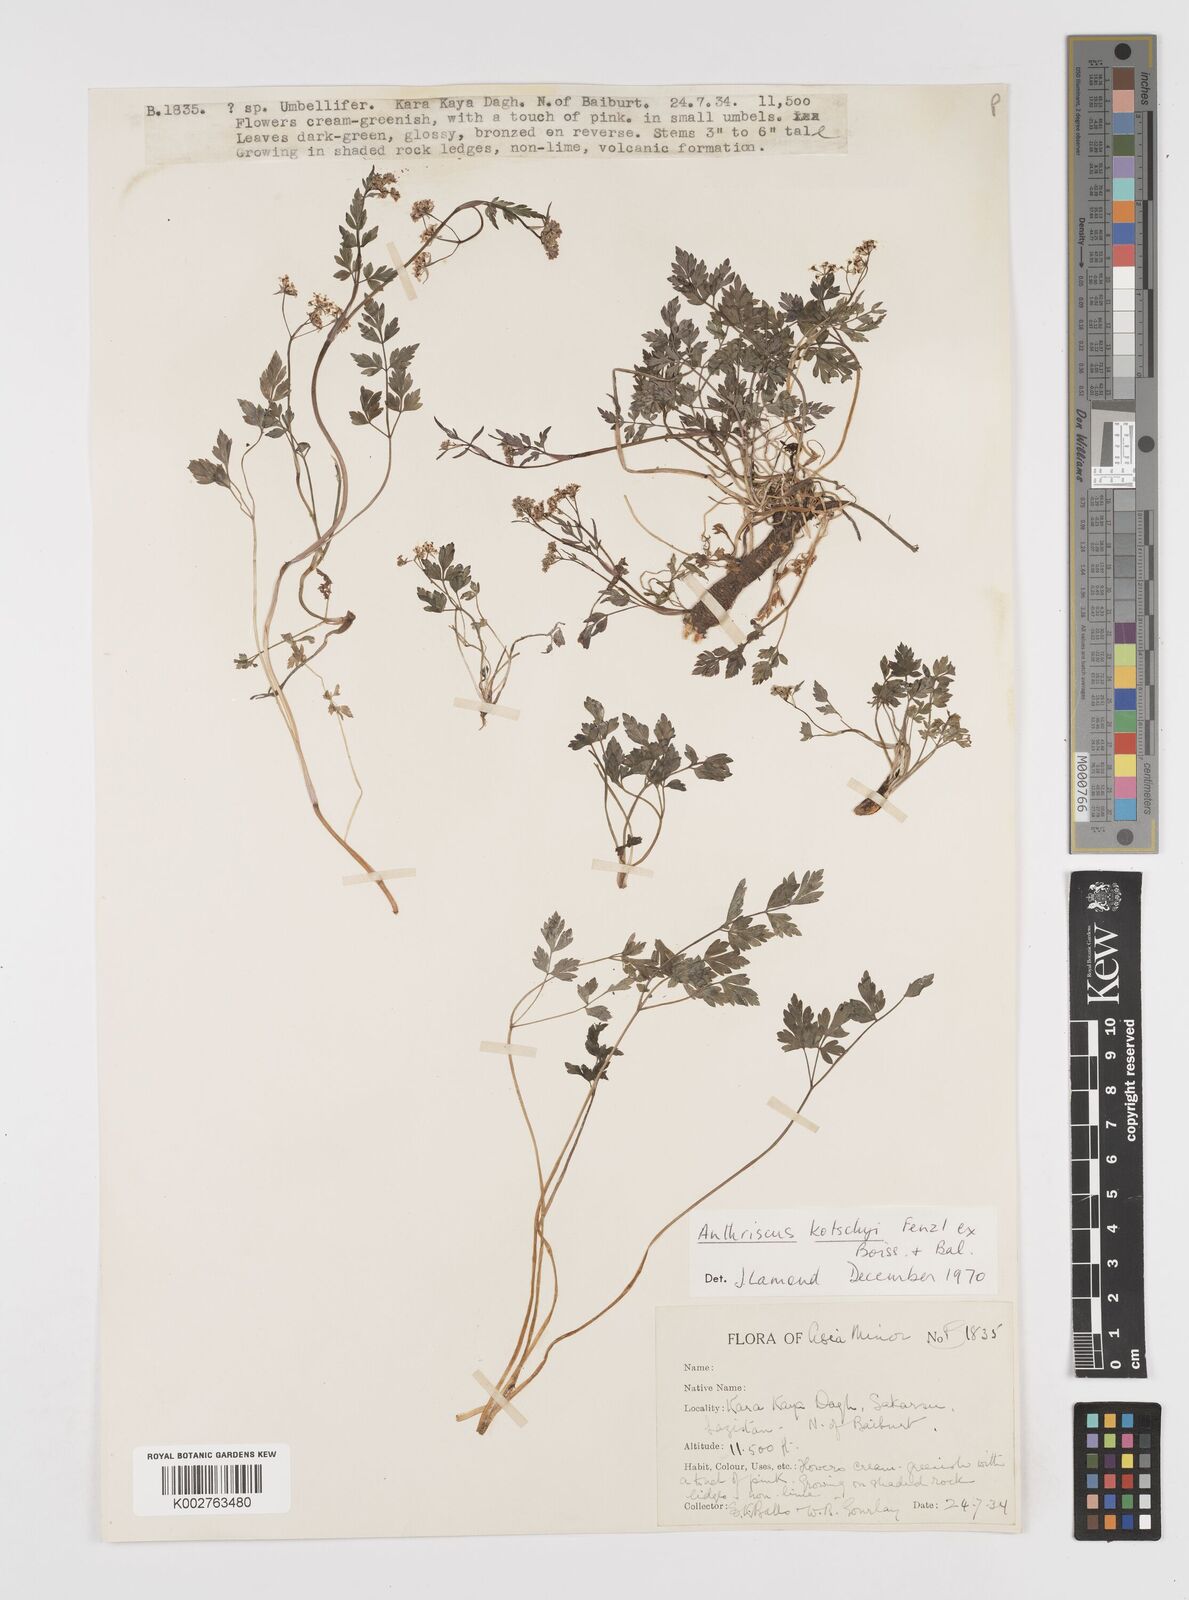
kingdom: Plantae
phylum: Tracheophyta
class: Magnoliopsida
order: Apiales
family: Apiaceae
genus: Anthriscus
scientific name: Anthriscus kotschyi
